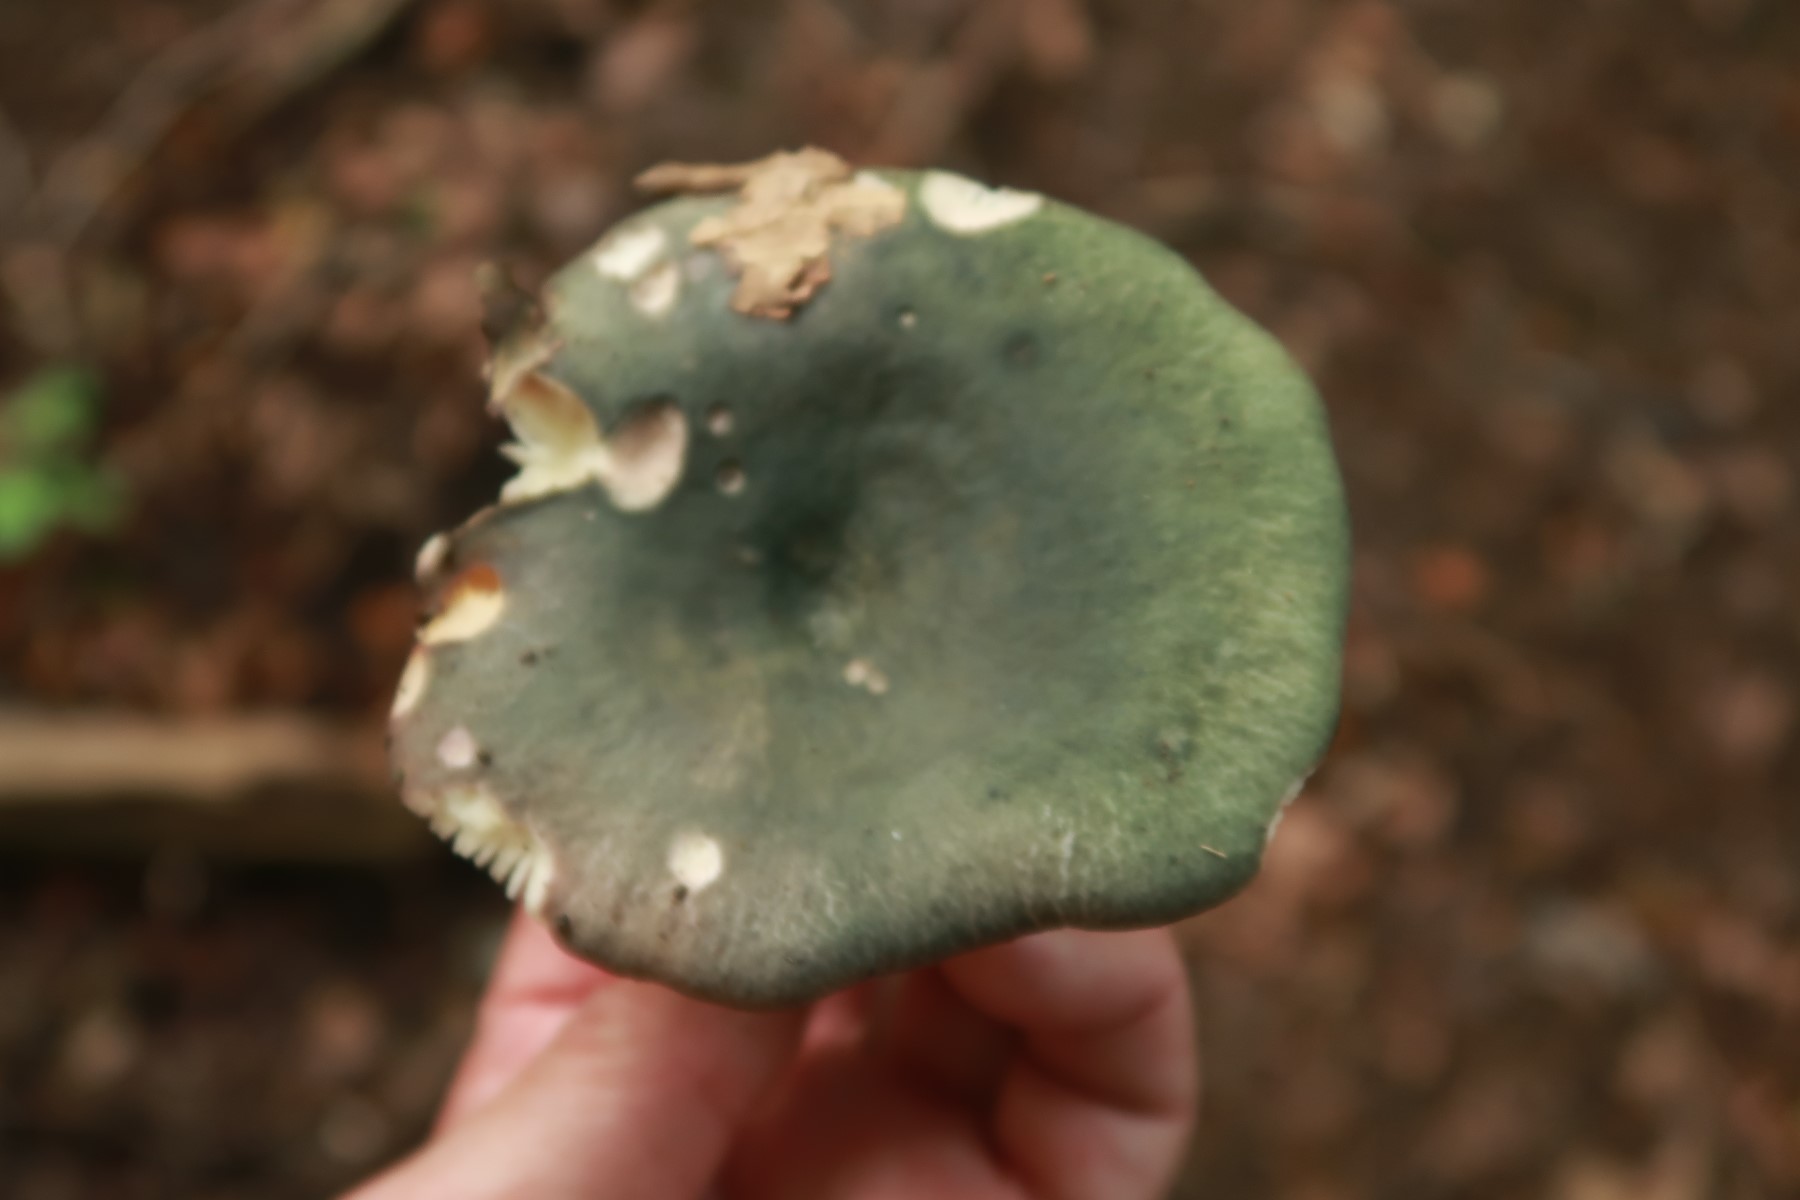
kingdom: Fungi
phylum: Basidiomycota
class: Agaricomycetes
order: Russulales
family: Russulaceae
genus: Russula
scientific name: Russula
